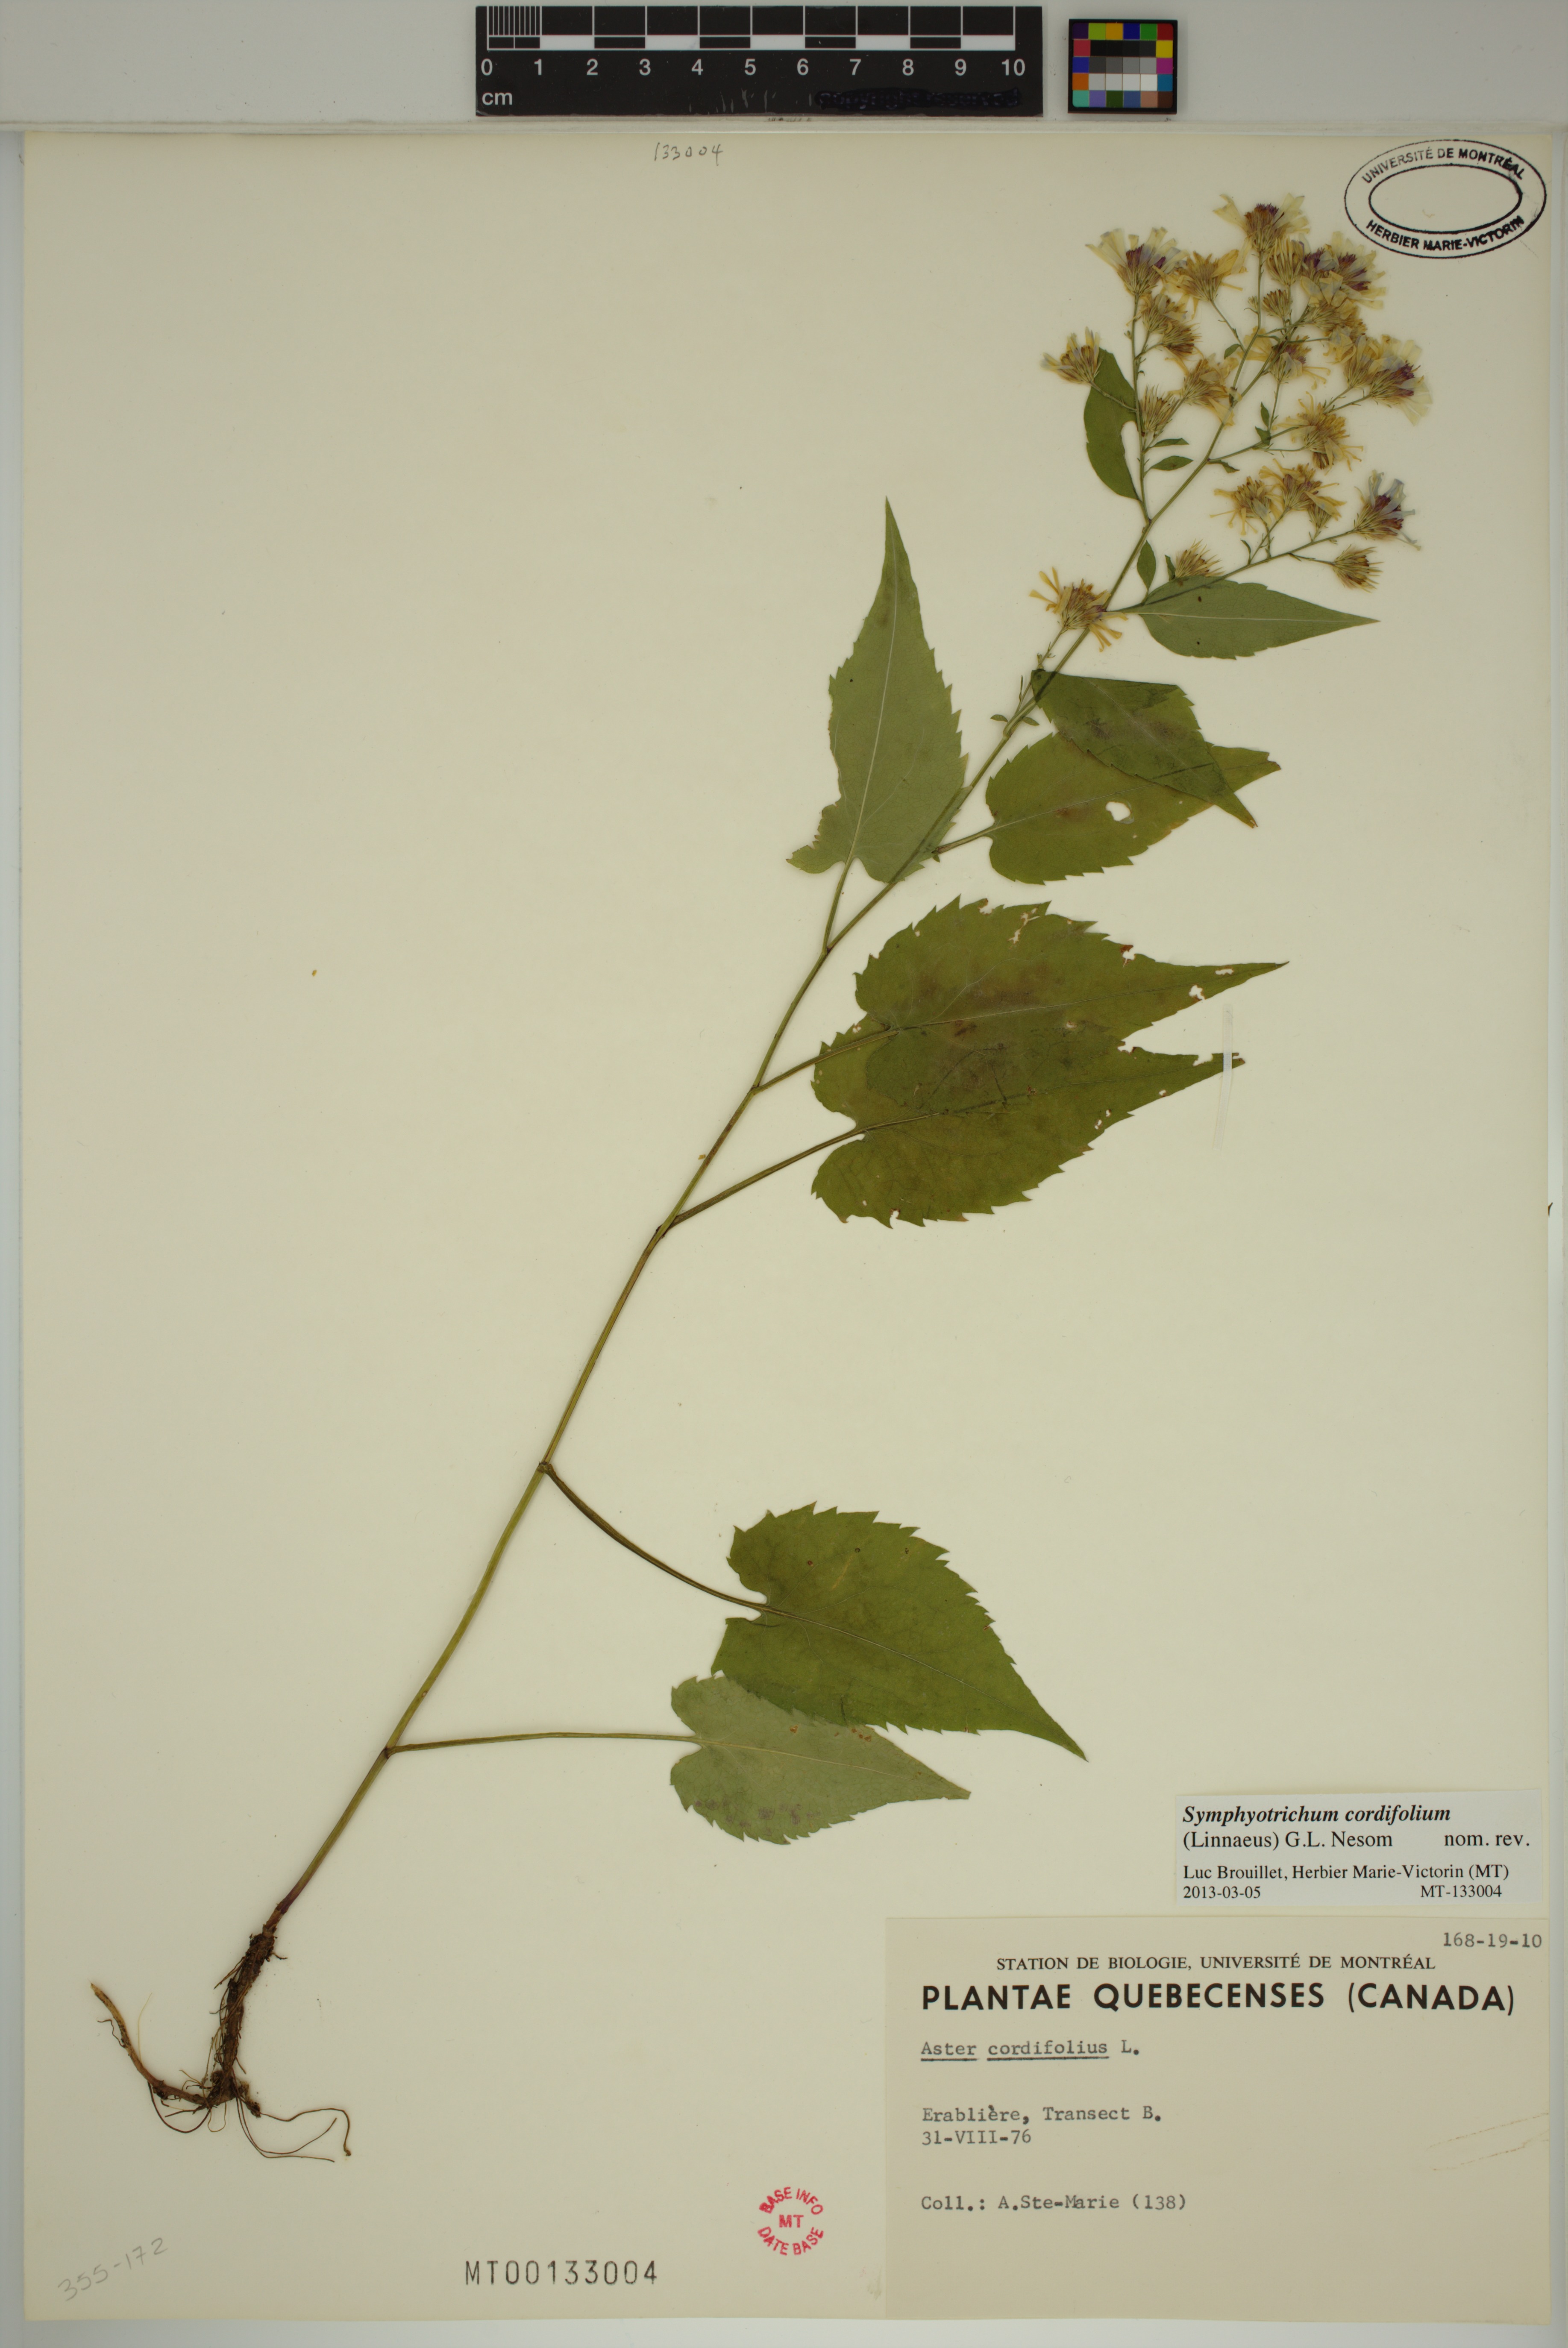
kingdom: Plantae
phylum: Tracheophyta
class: Magnoliopsida
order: Asterales
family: Asteraceae
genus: Symphyotrichum
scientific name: Symphyotrichum cordifolium
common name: Beeweed
